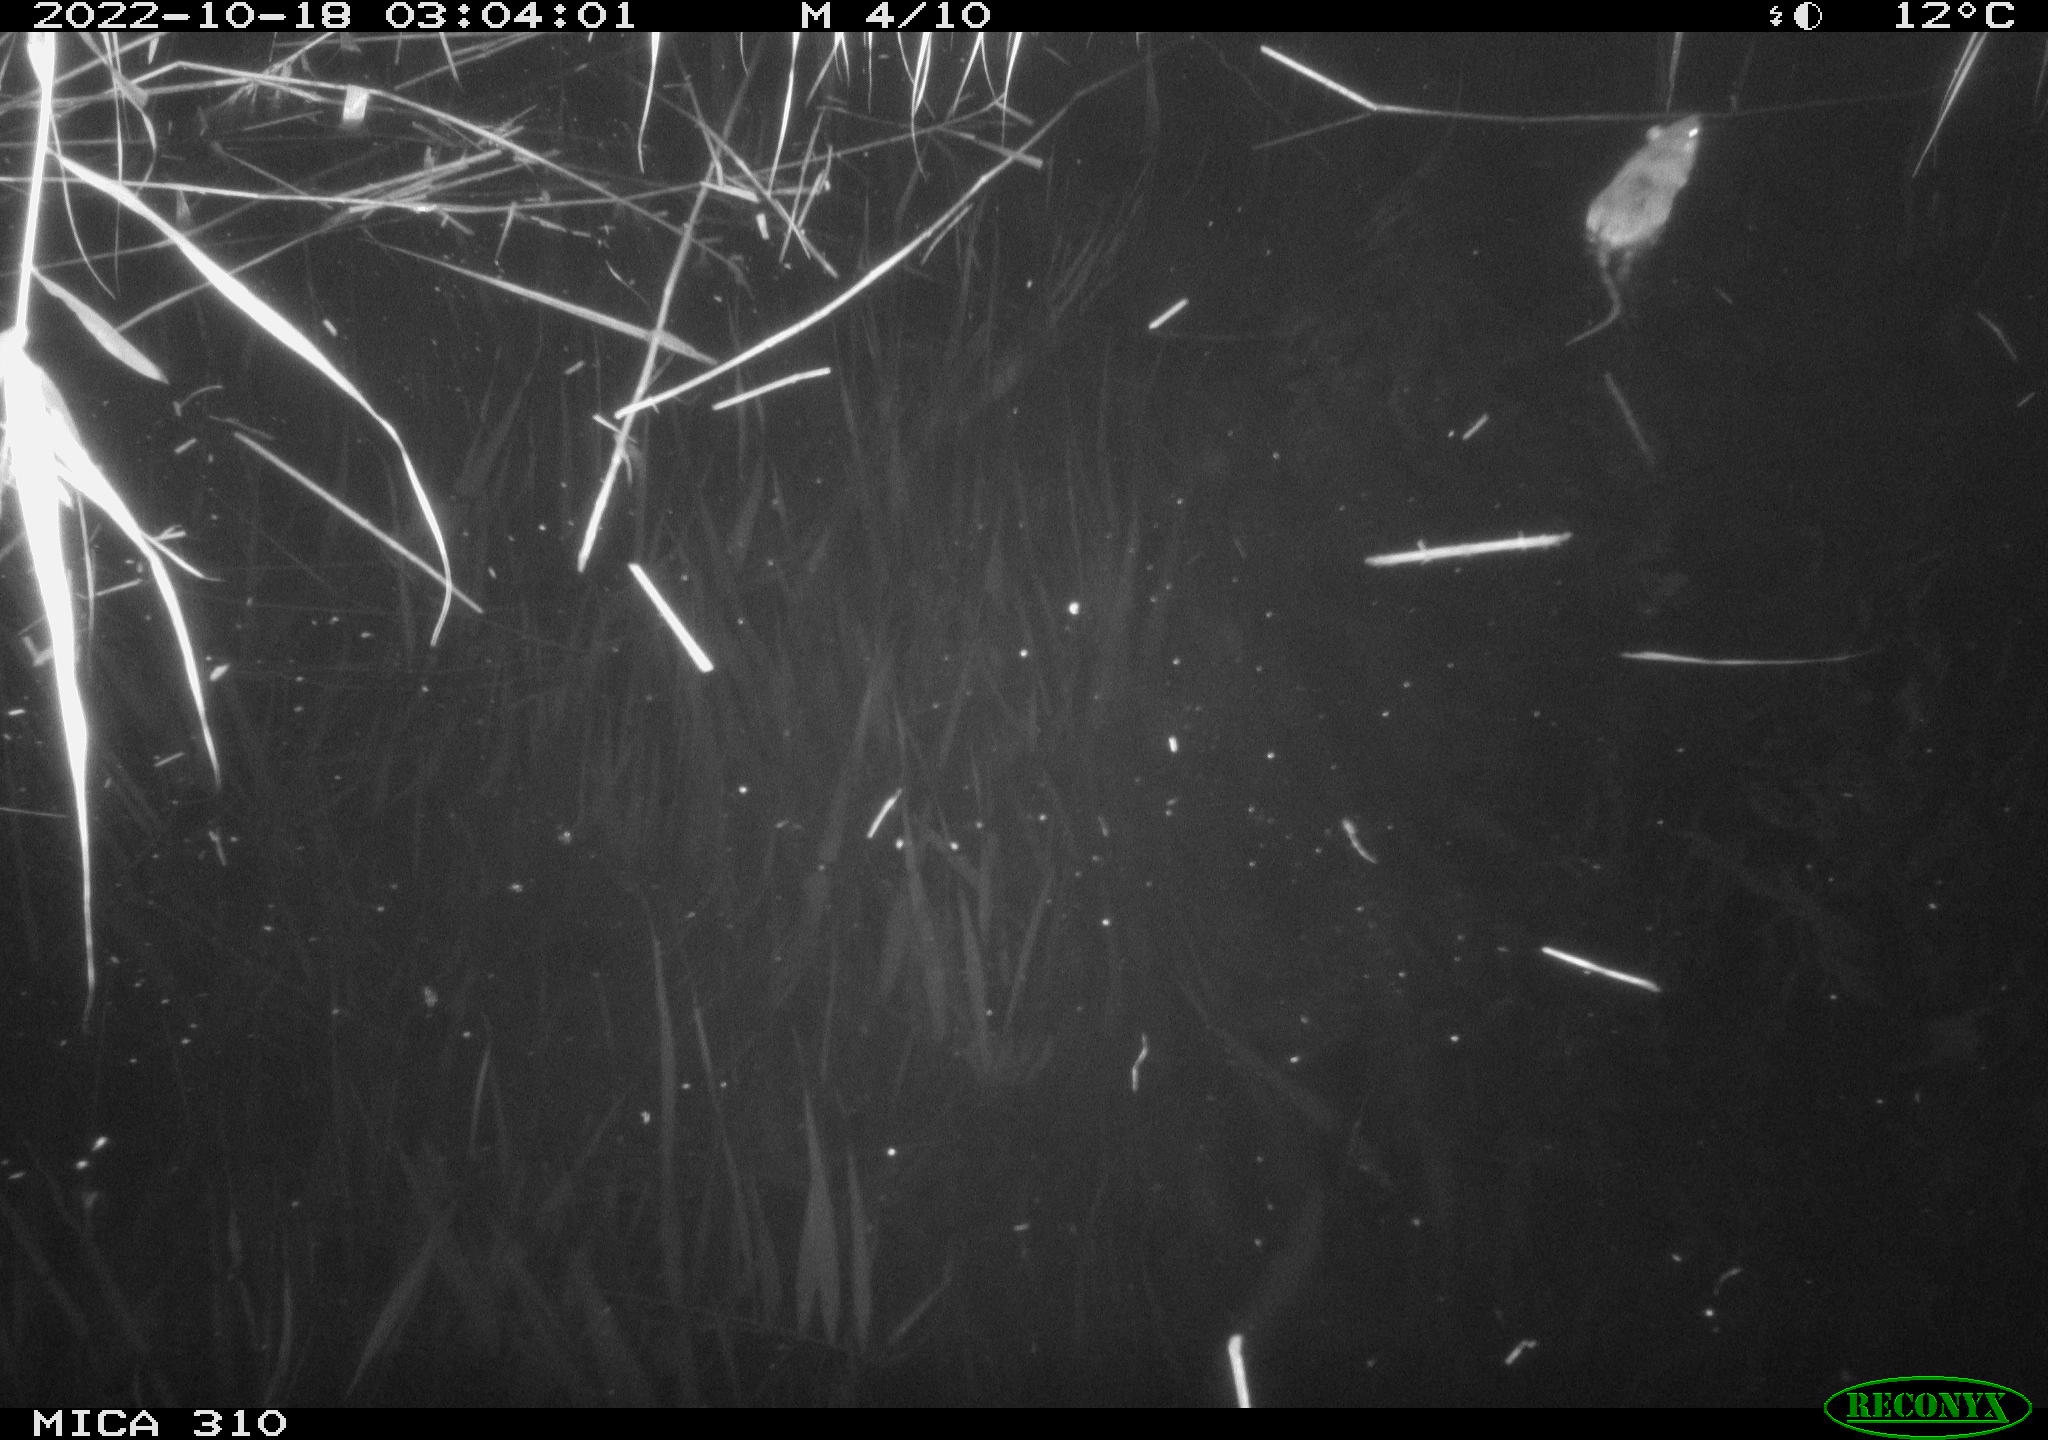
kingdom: Animalia
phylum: Chordata
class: Mammalia
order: Rodentia
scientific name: Rodentia
